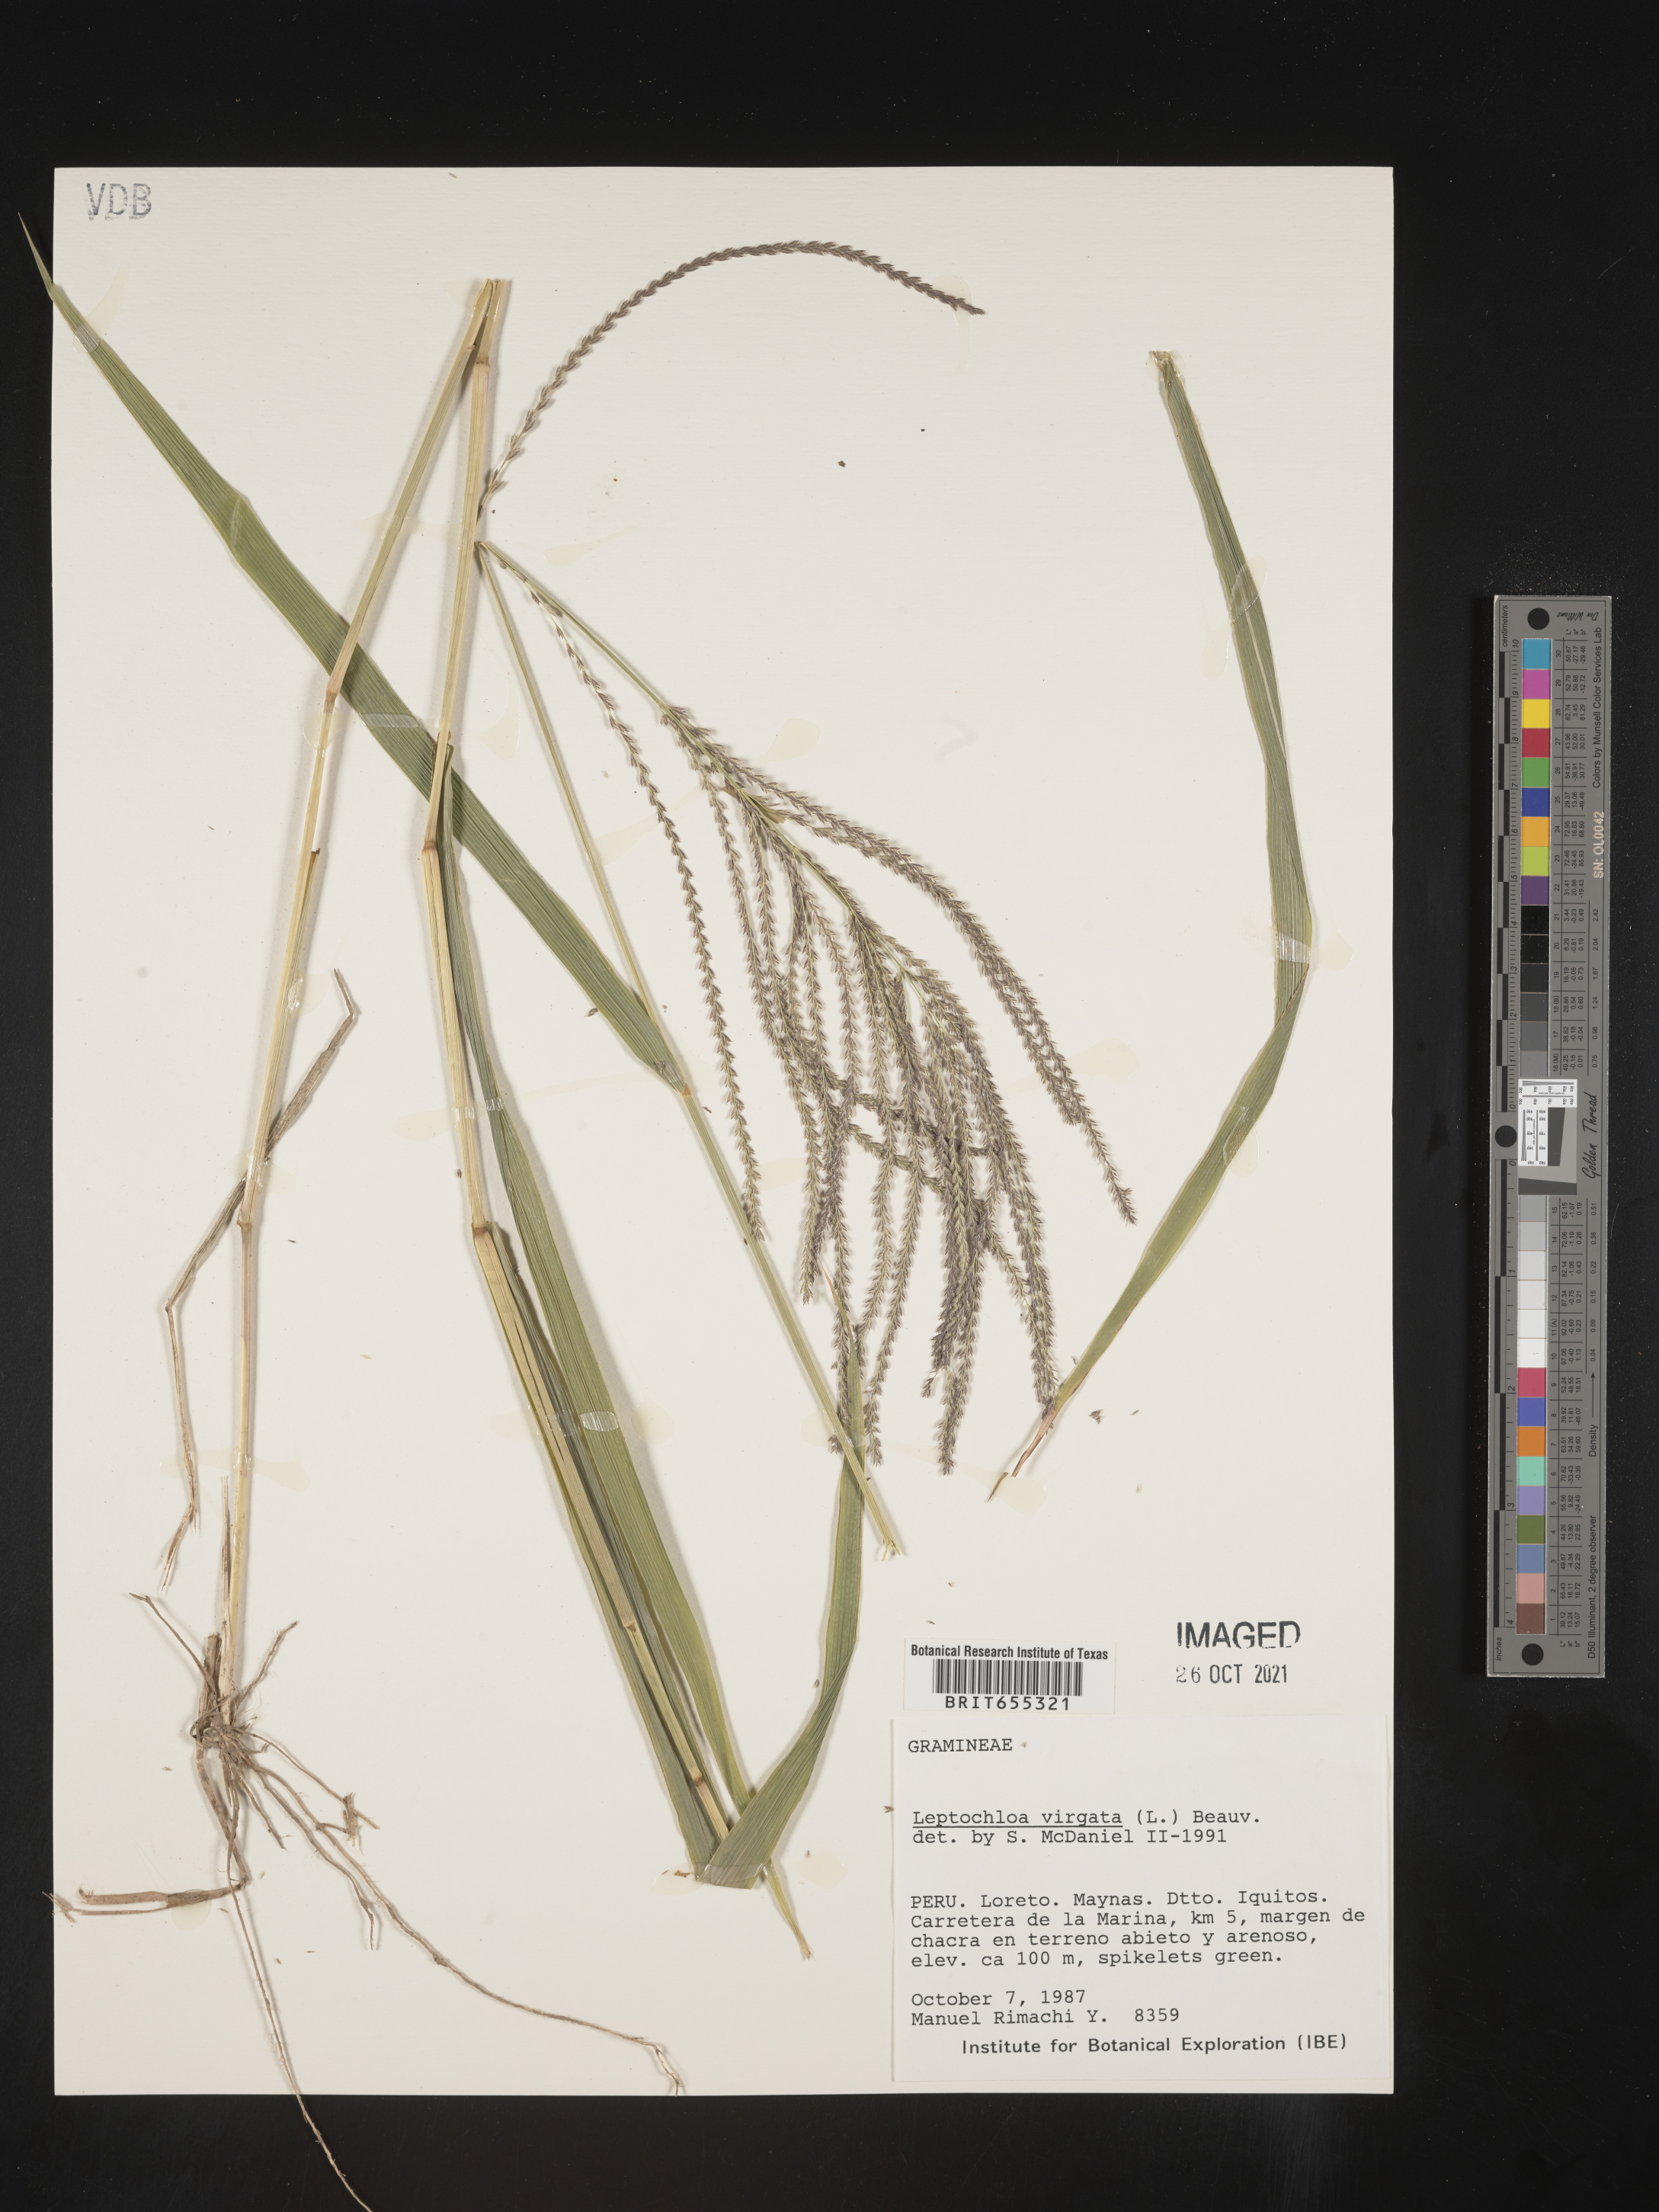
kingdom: Plantae
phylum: Tracheophyta
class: Liliopsida
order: Poales
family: Poaceae
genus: Digitaria
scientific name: Digitaria
